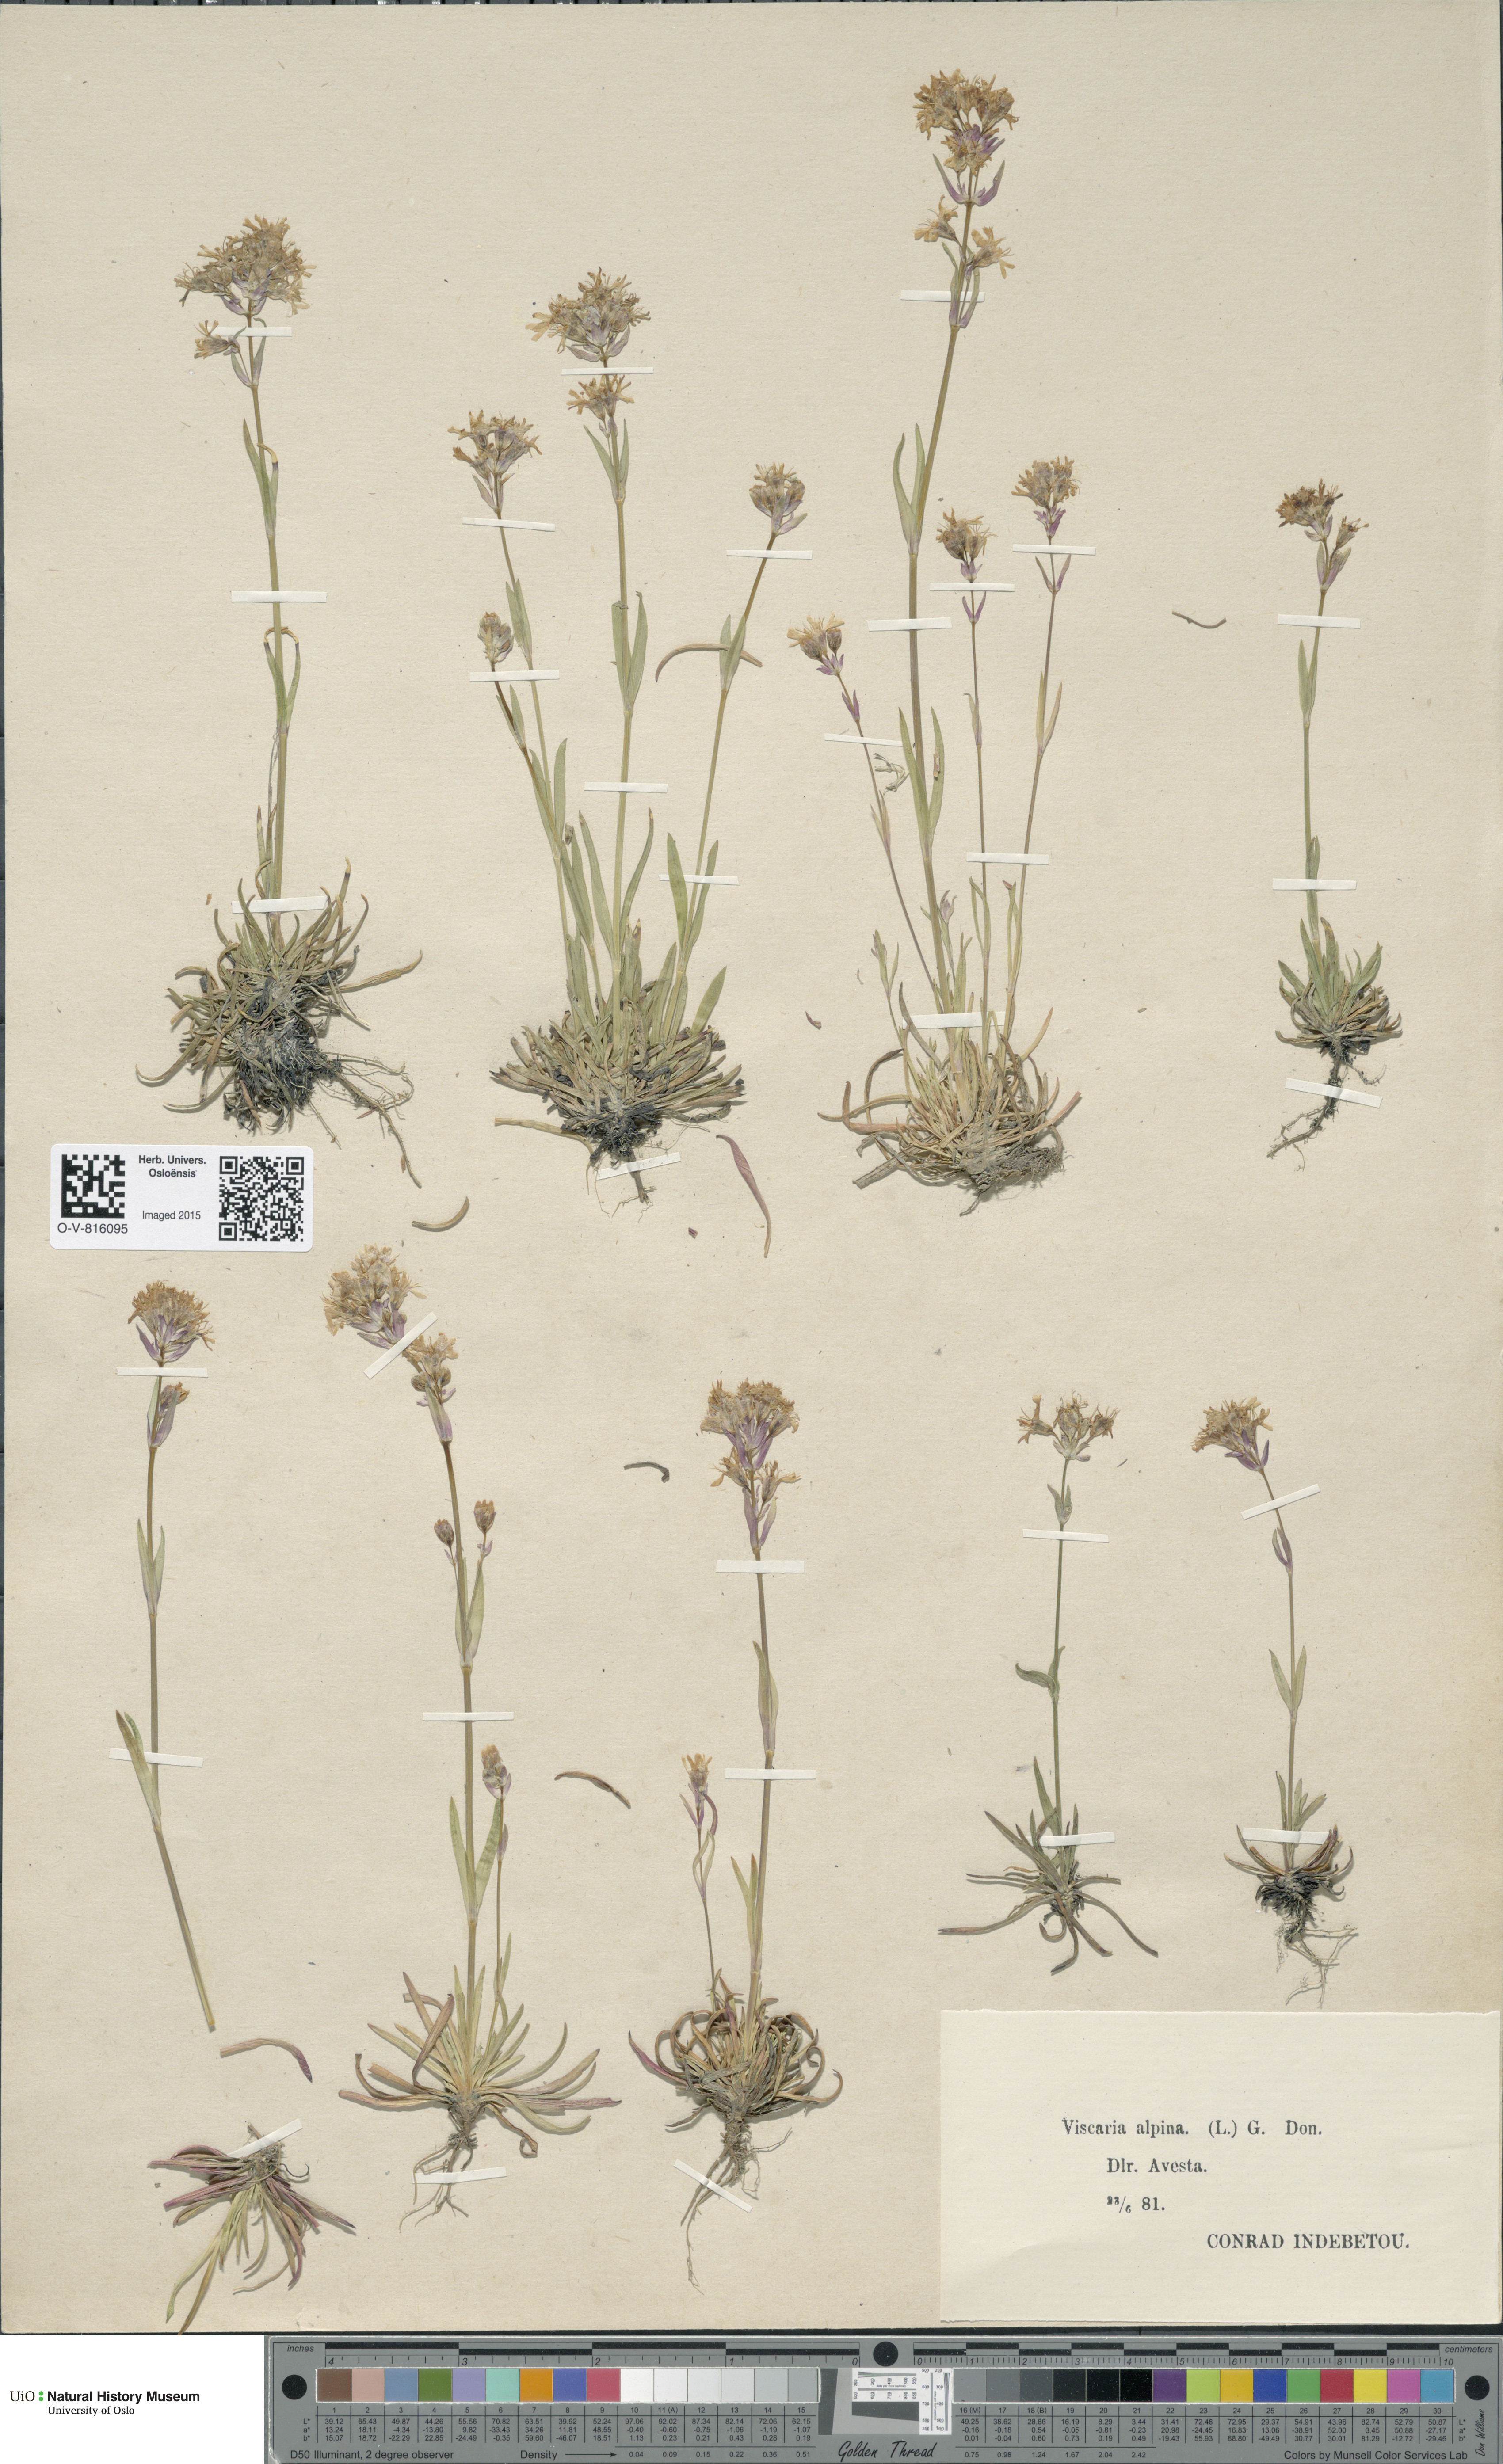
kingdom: Plantae
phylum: Tracheophyta
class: Magnoliopsida
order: Caryophyllales
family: Caryophyllaceae
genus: Viscaria
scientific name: Viscaria alpina
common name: Alpine campion
